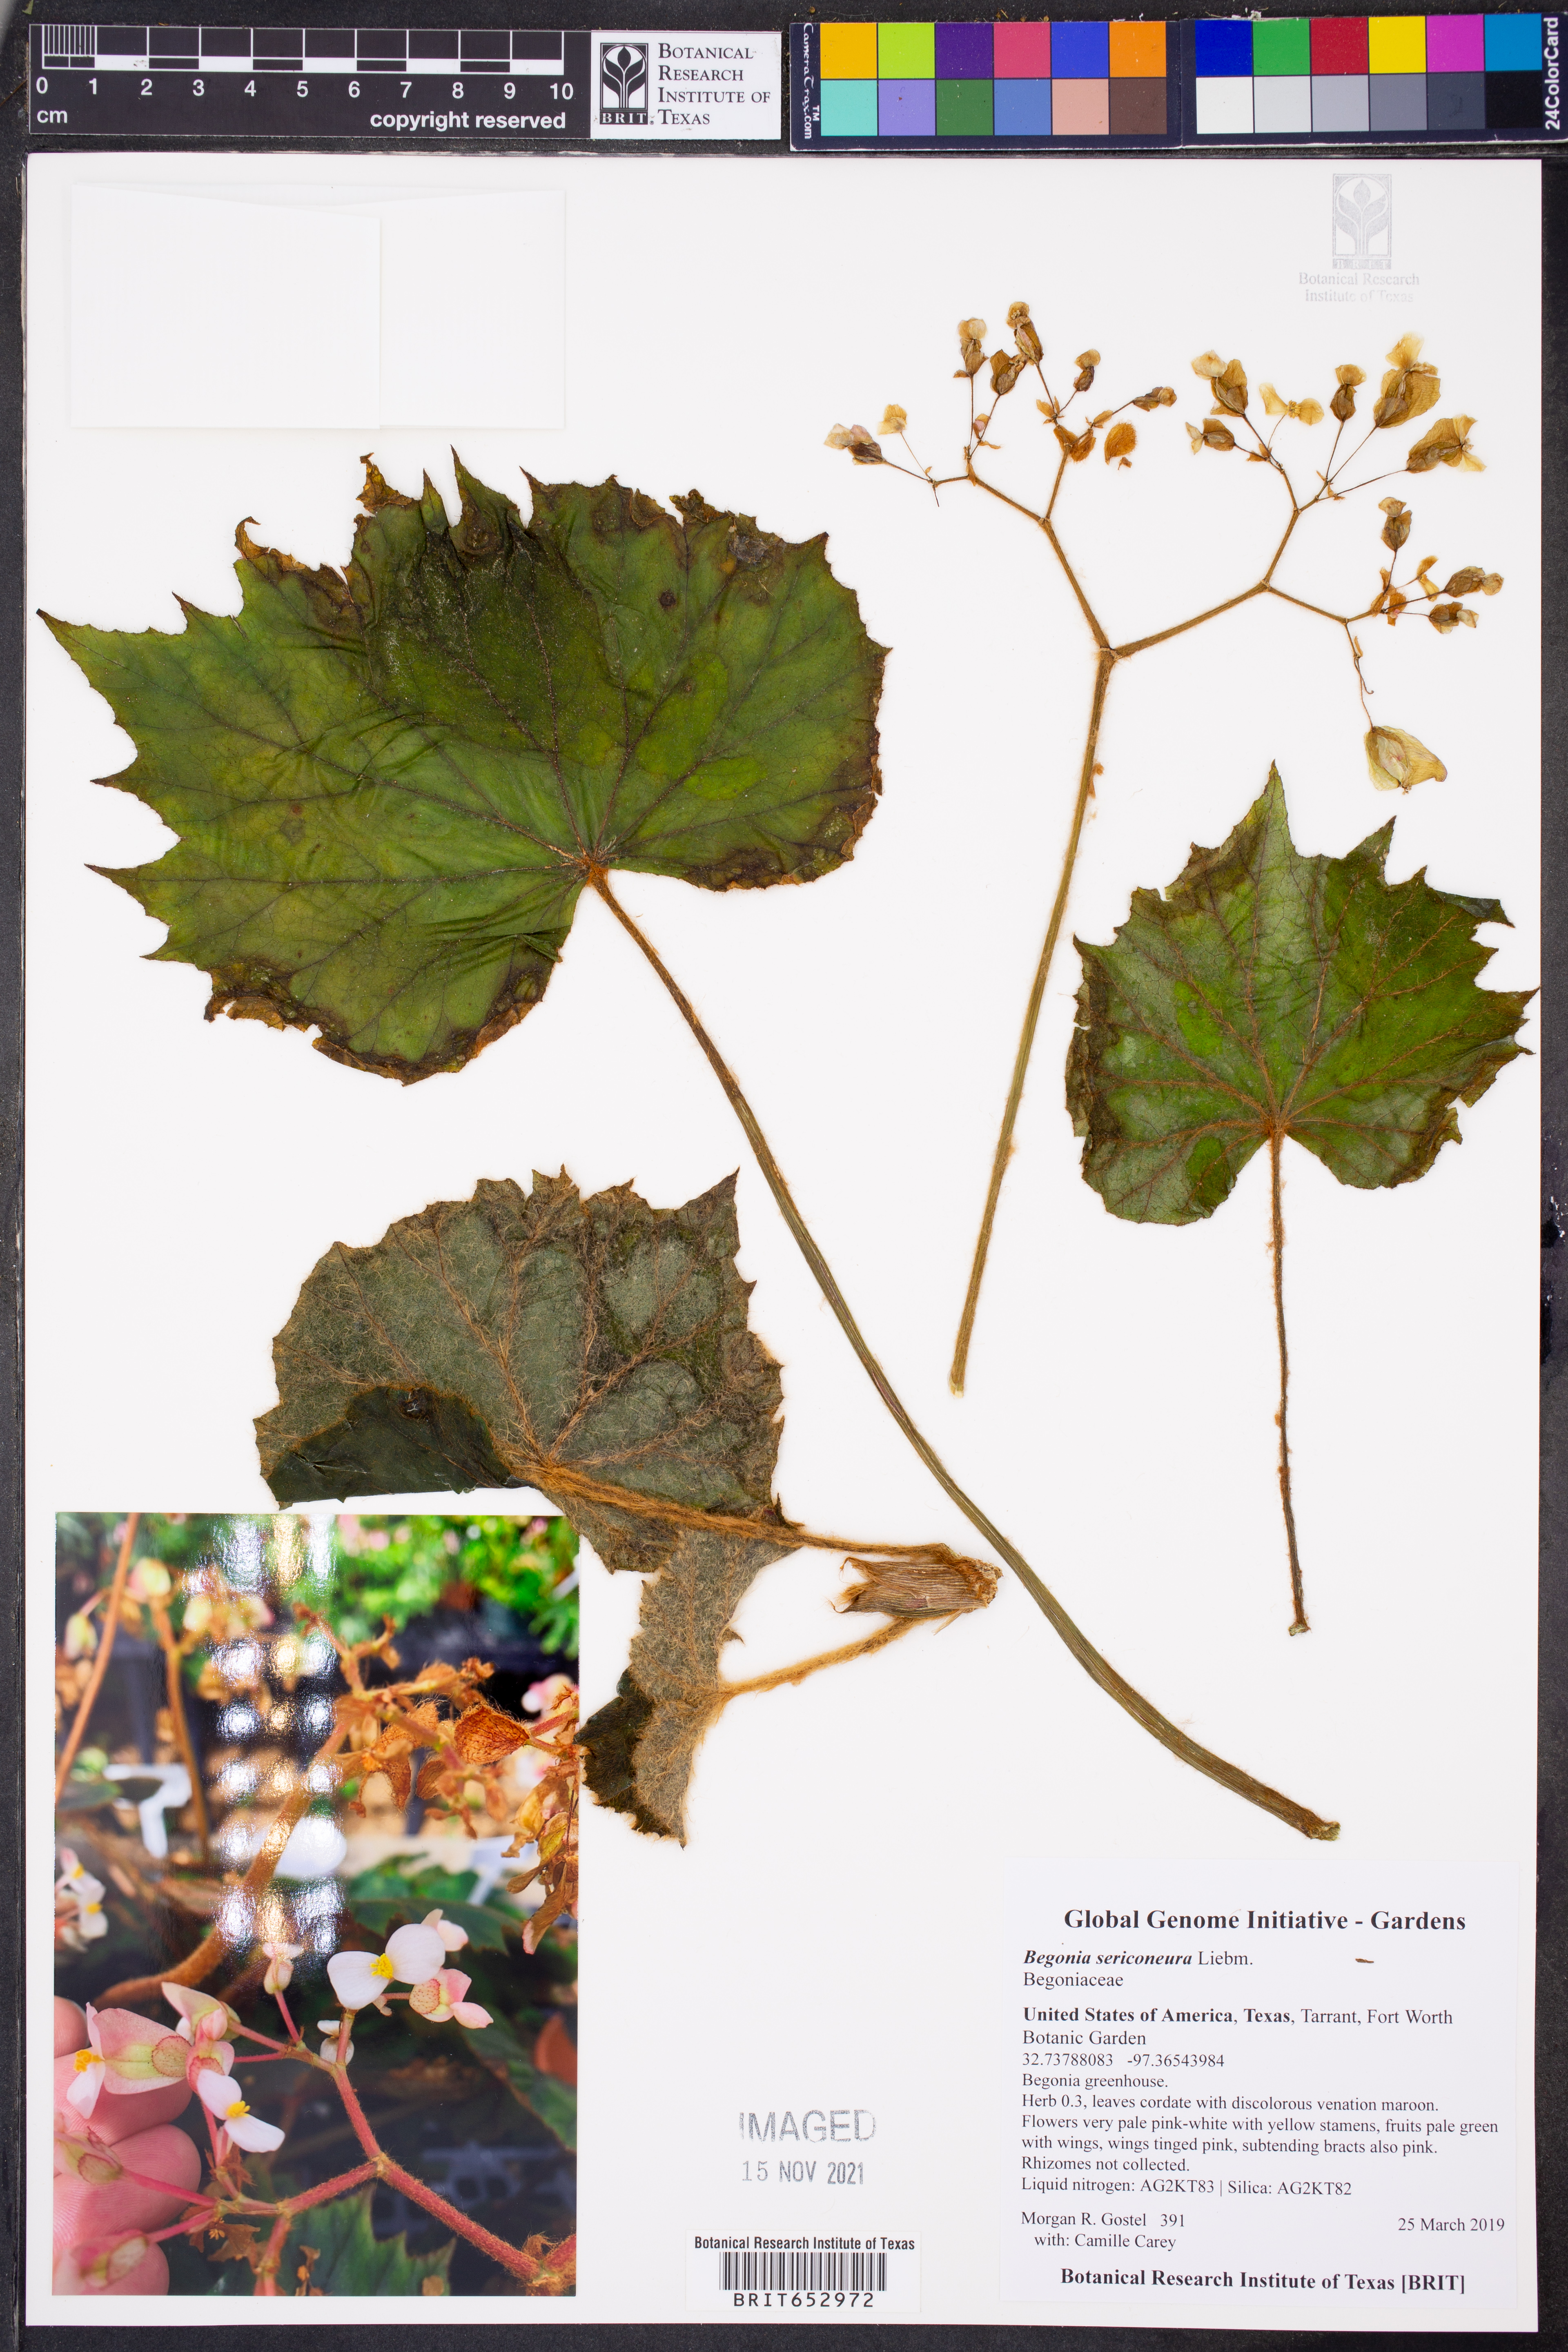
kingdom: Plantae
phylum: Tracheophyta
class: Magnoliopsida
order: Cucurbitales
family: Begoniaceae
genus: Begonia
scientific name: Begonia sericoneura
